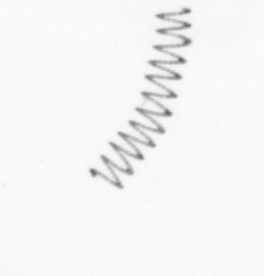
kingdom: Chromista
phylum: Ochrophyta
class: Bacillariophyceae
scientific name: Bacillariophyceae
